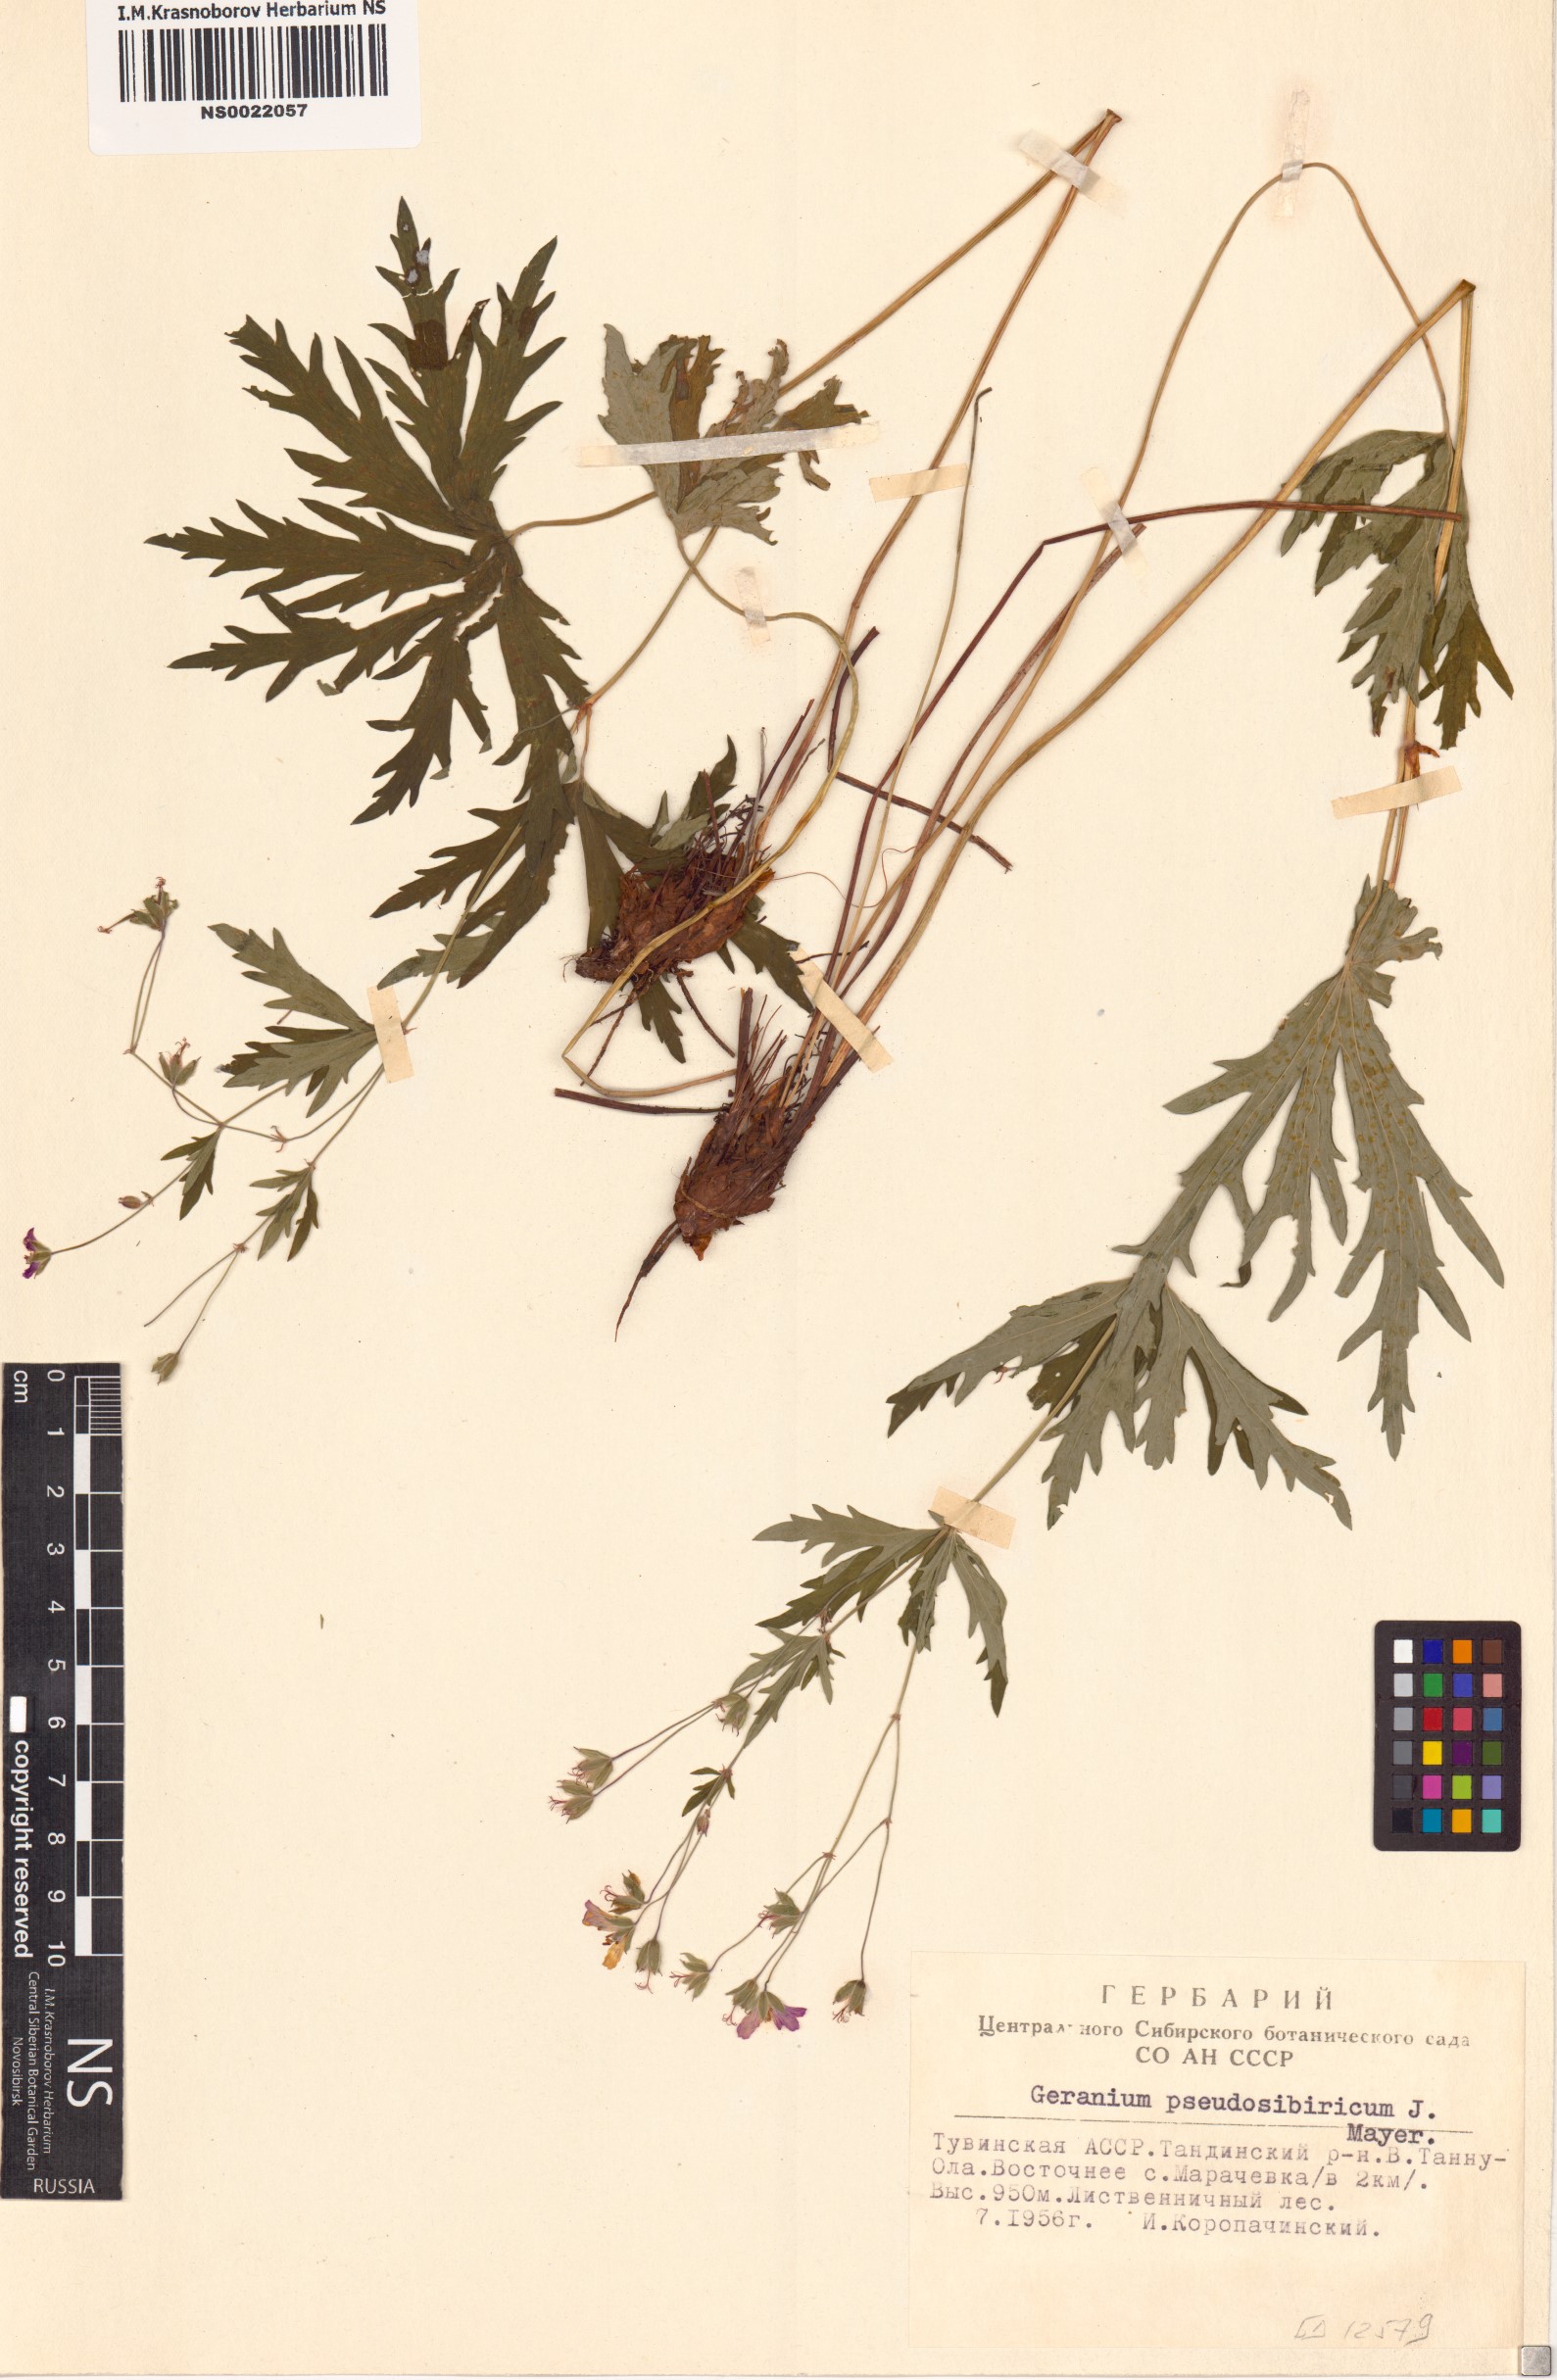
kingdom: Plantae
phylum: Tracheophyta
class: Magnoliopsida
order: Geraniales
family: Geraniaceae
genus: Geranium
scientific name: Geranium pseudosibiricum
